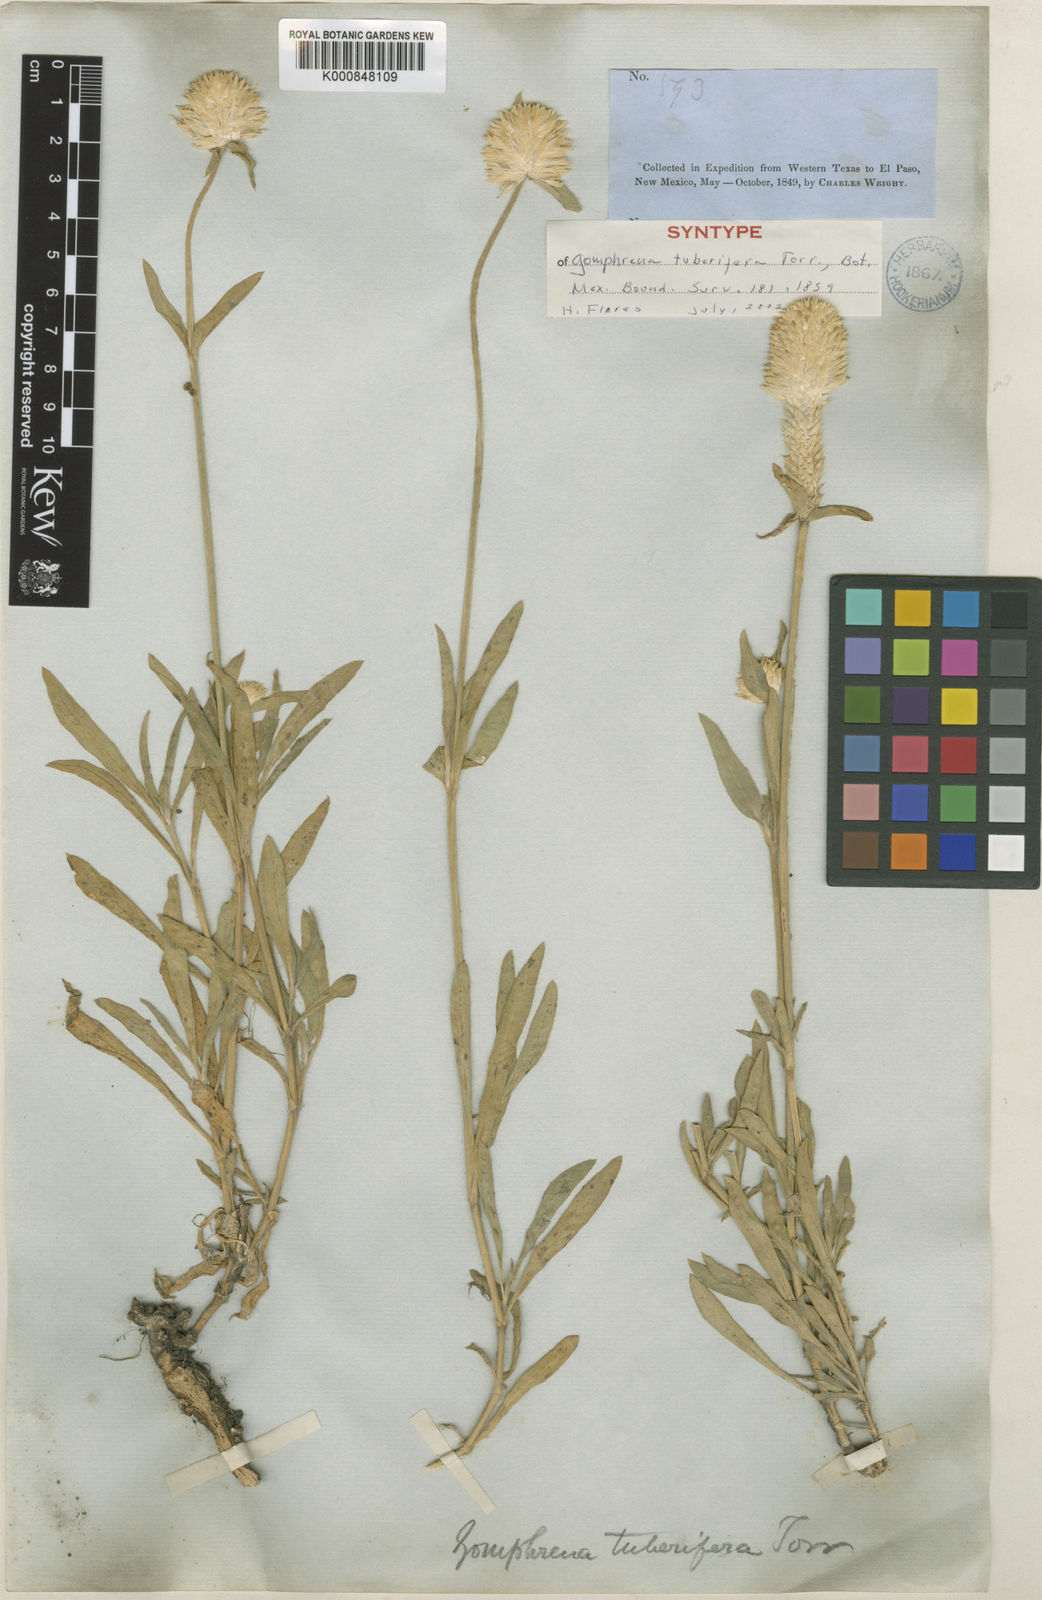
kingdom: Plantae
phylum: Tracheophyta
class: Magnoliopsida
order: Caryophyllales
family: Amaranthaceae
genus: Gomphrena
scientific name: Gomphrena haageana
